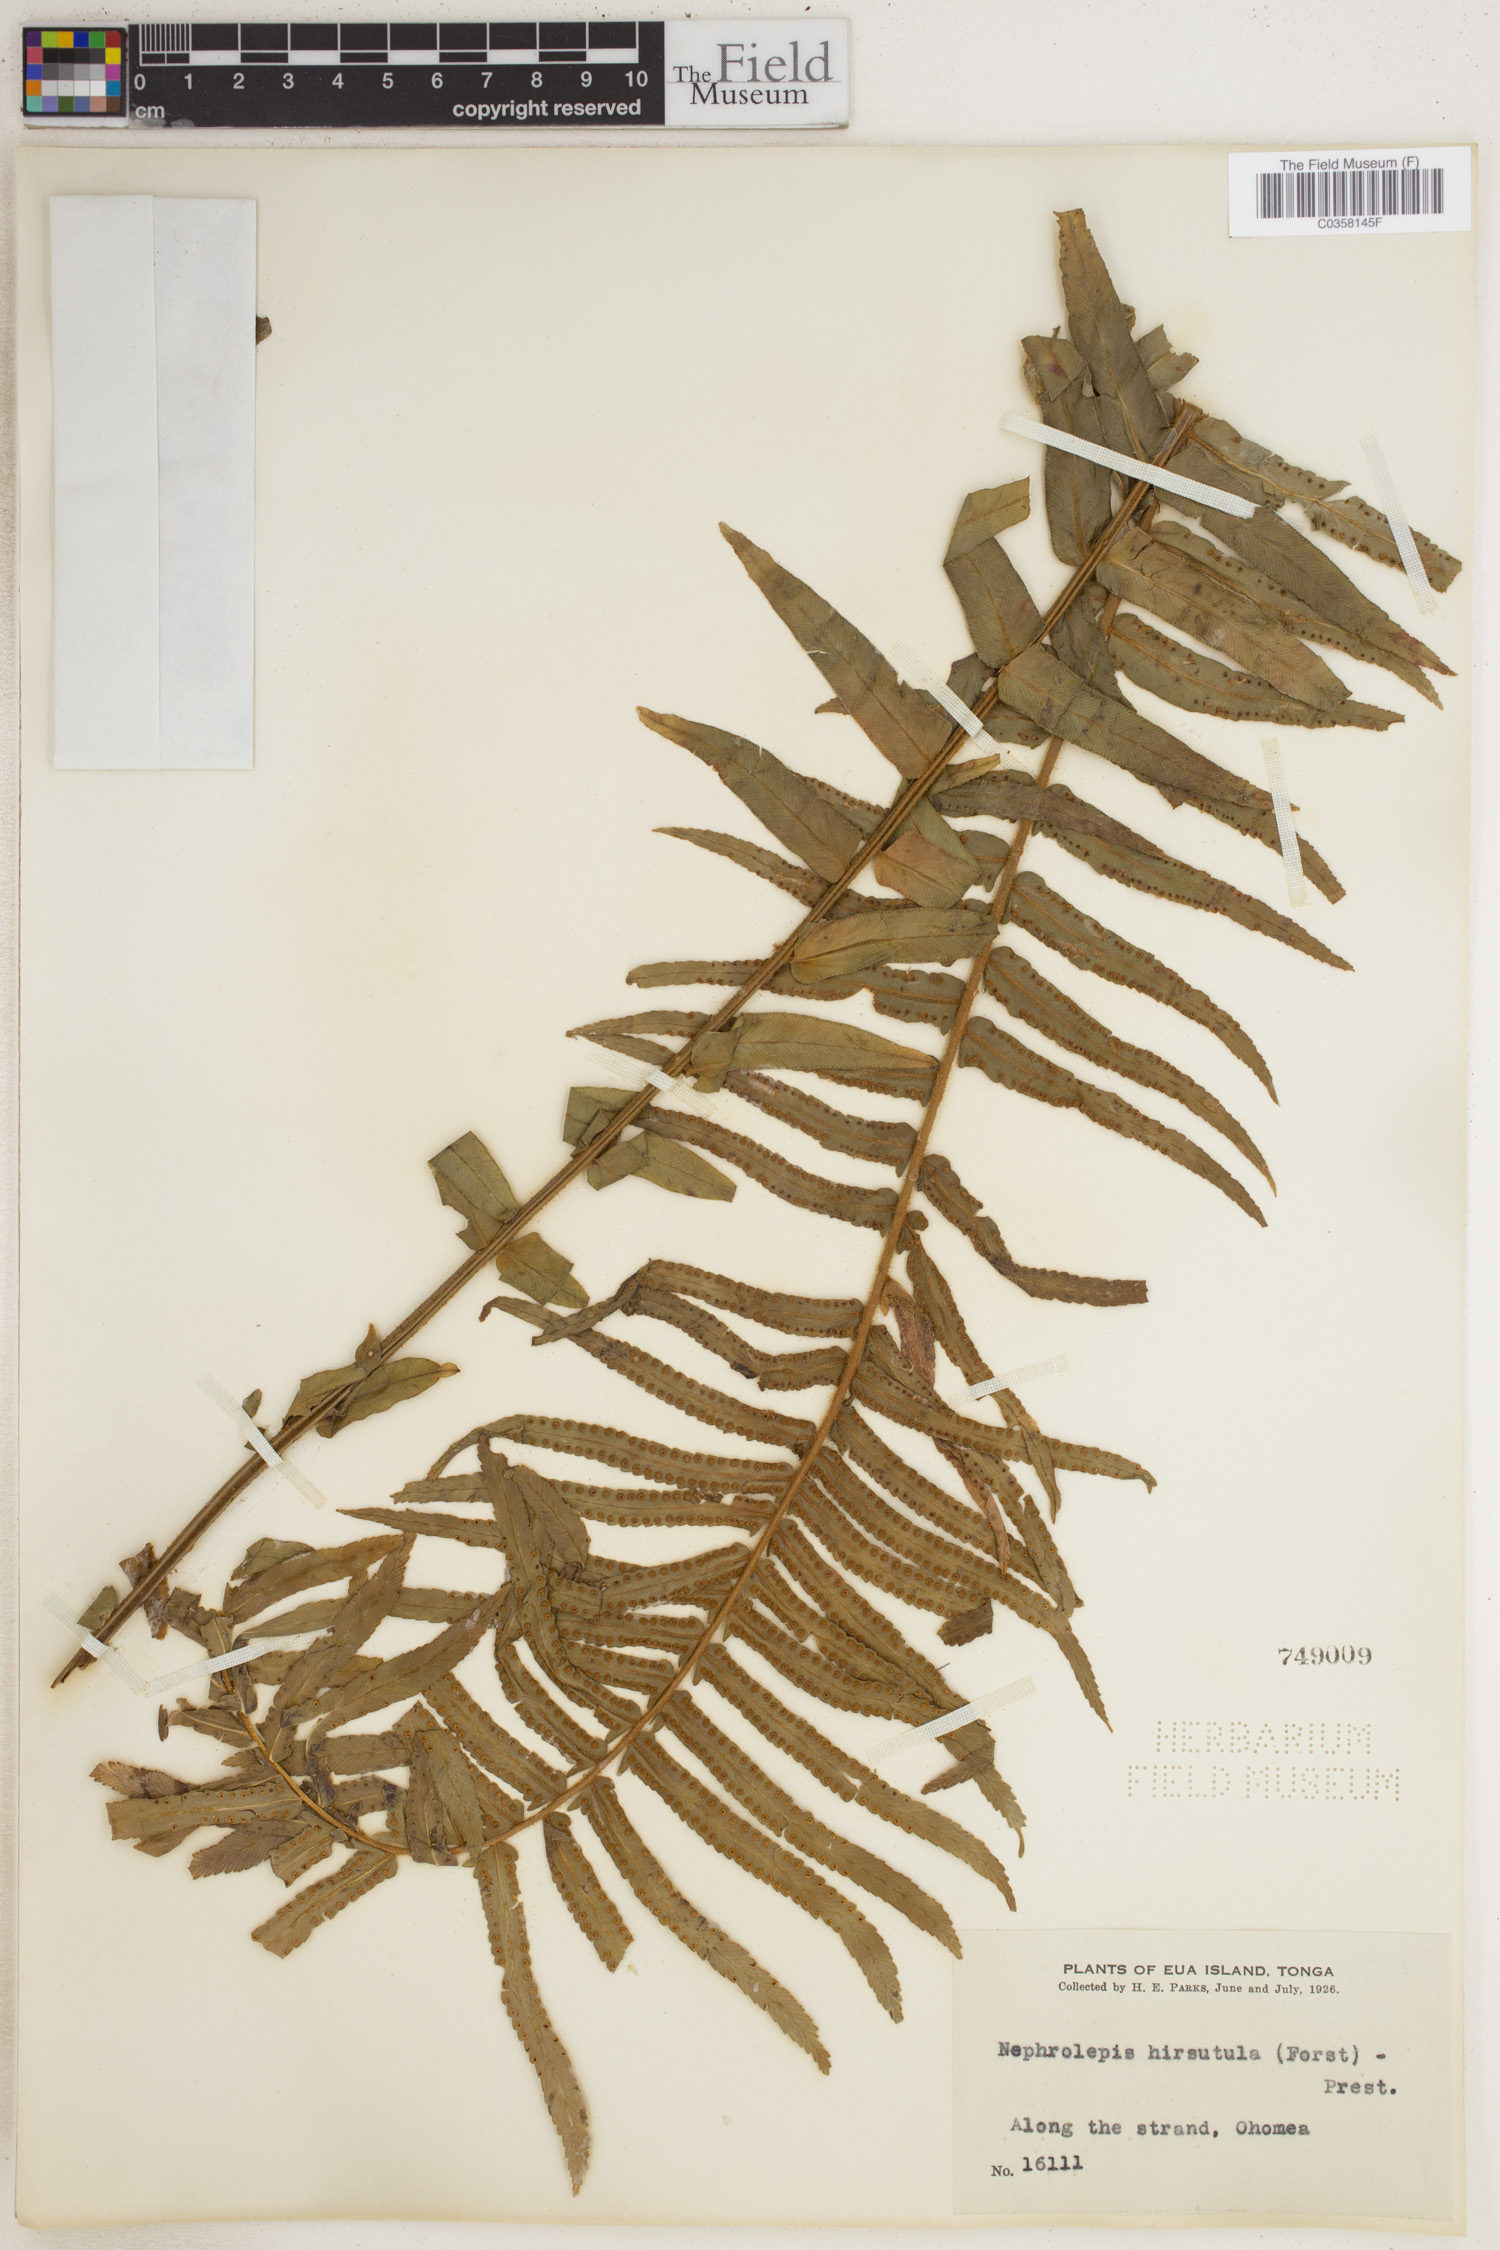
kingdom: Plantae
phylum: Tracheophyta
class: Polypodiopsida
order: Polypodiales
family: Nephrolepidaceae
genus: Nephrolepis
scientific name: Nephrolepis hirsutula
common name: Asian sword fern
